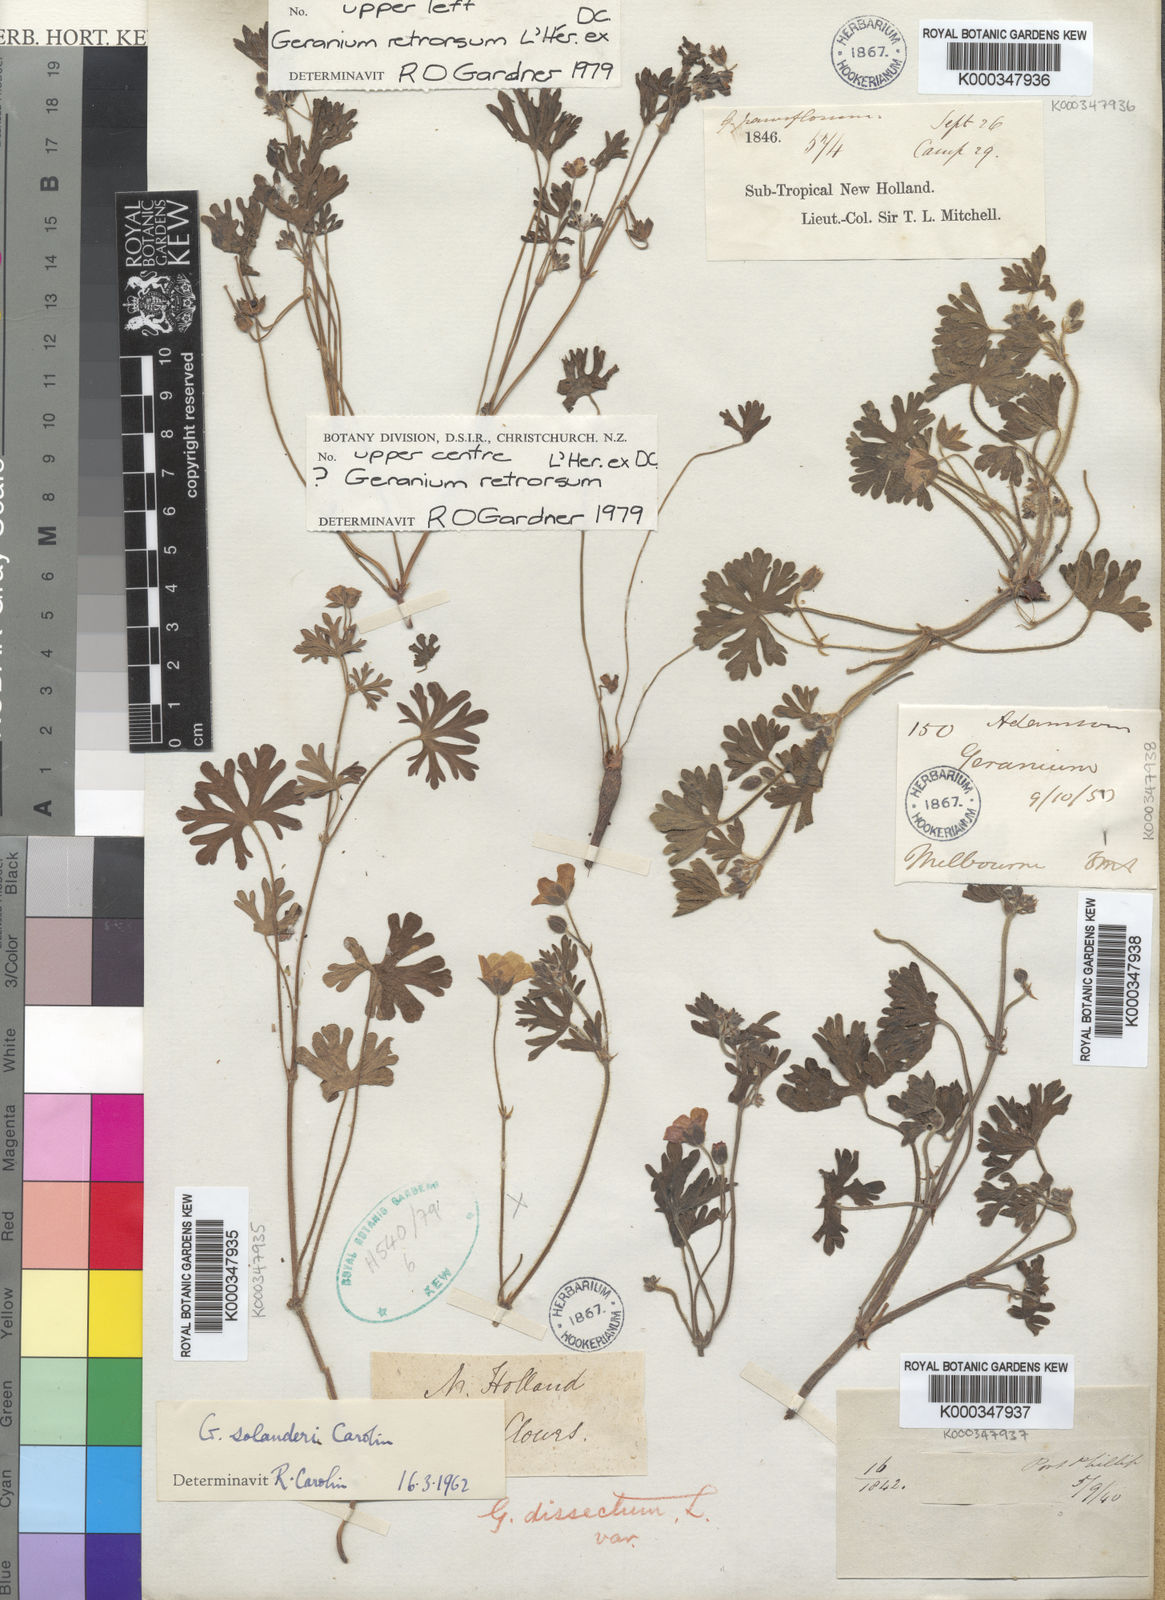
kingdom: Plantae
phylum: Tracheophyta
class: Magnoliopsida
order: Geraniales
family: Geraniaceae
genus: Geranium
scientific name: Geranium retrorsum
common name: New zealand geranium
